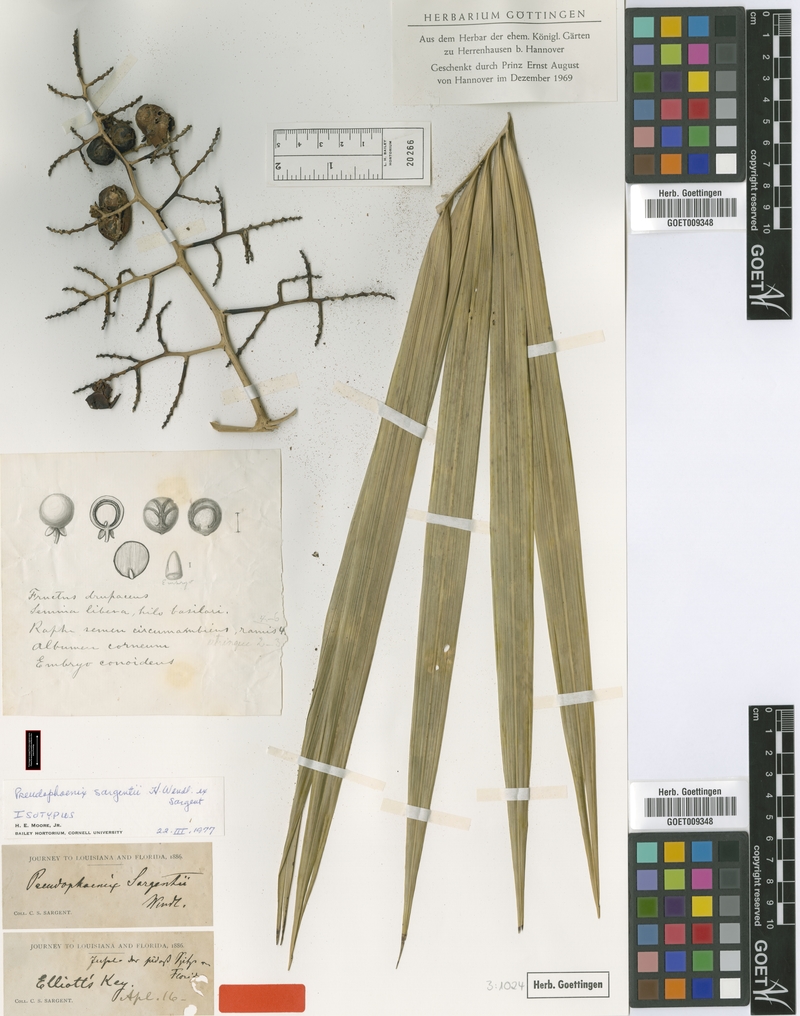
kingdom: Plantae
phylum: Tracheophyta
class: Liliopsida
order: Arecales
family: Arecaceae
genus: Pseudophoenix
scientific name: Pseudophoenix sargentii
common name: Buccaneer palm
